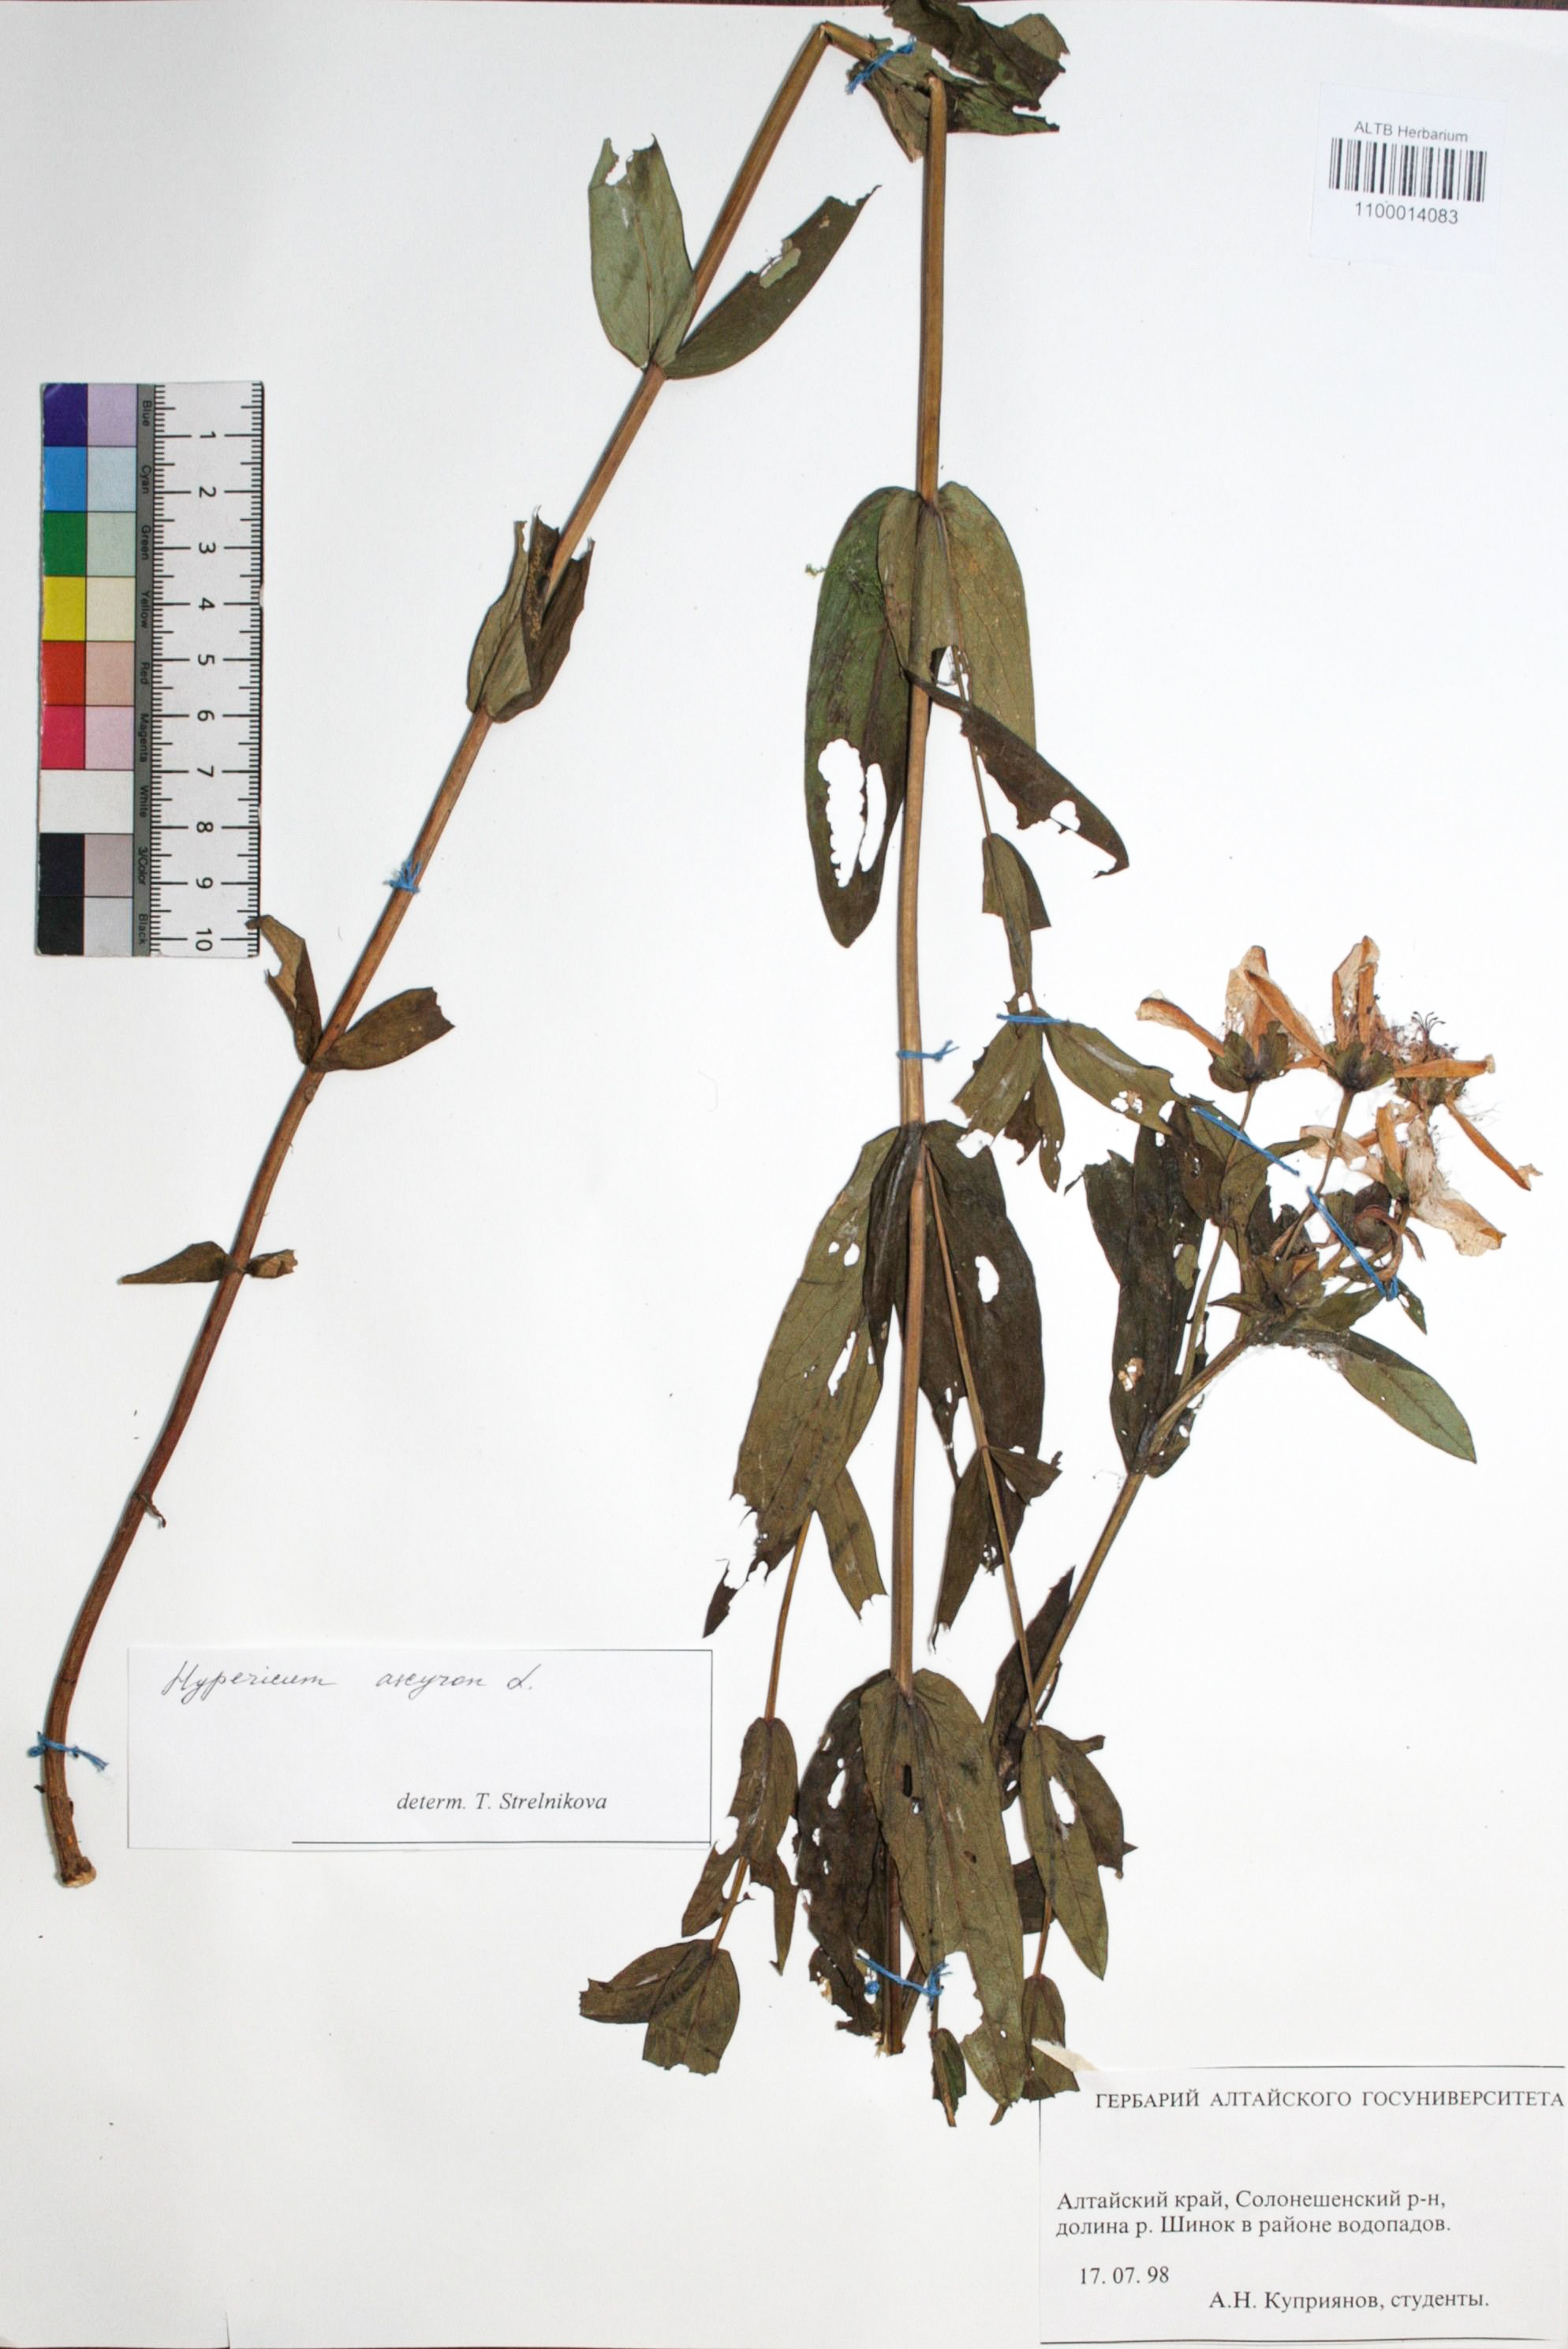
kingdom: Plantae
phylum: Tracheophyta
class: Magnoliopsida
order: Malpighiales
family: Hypericaceae
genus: Hypericum
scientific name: Hypericum ascyron
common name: Giant st. john's-wort
